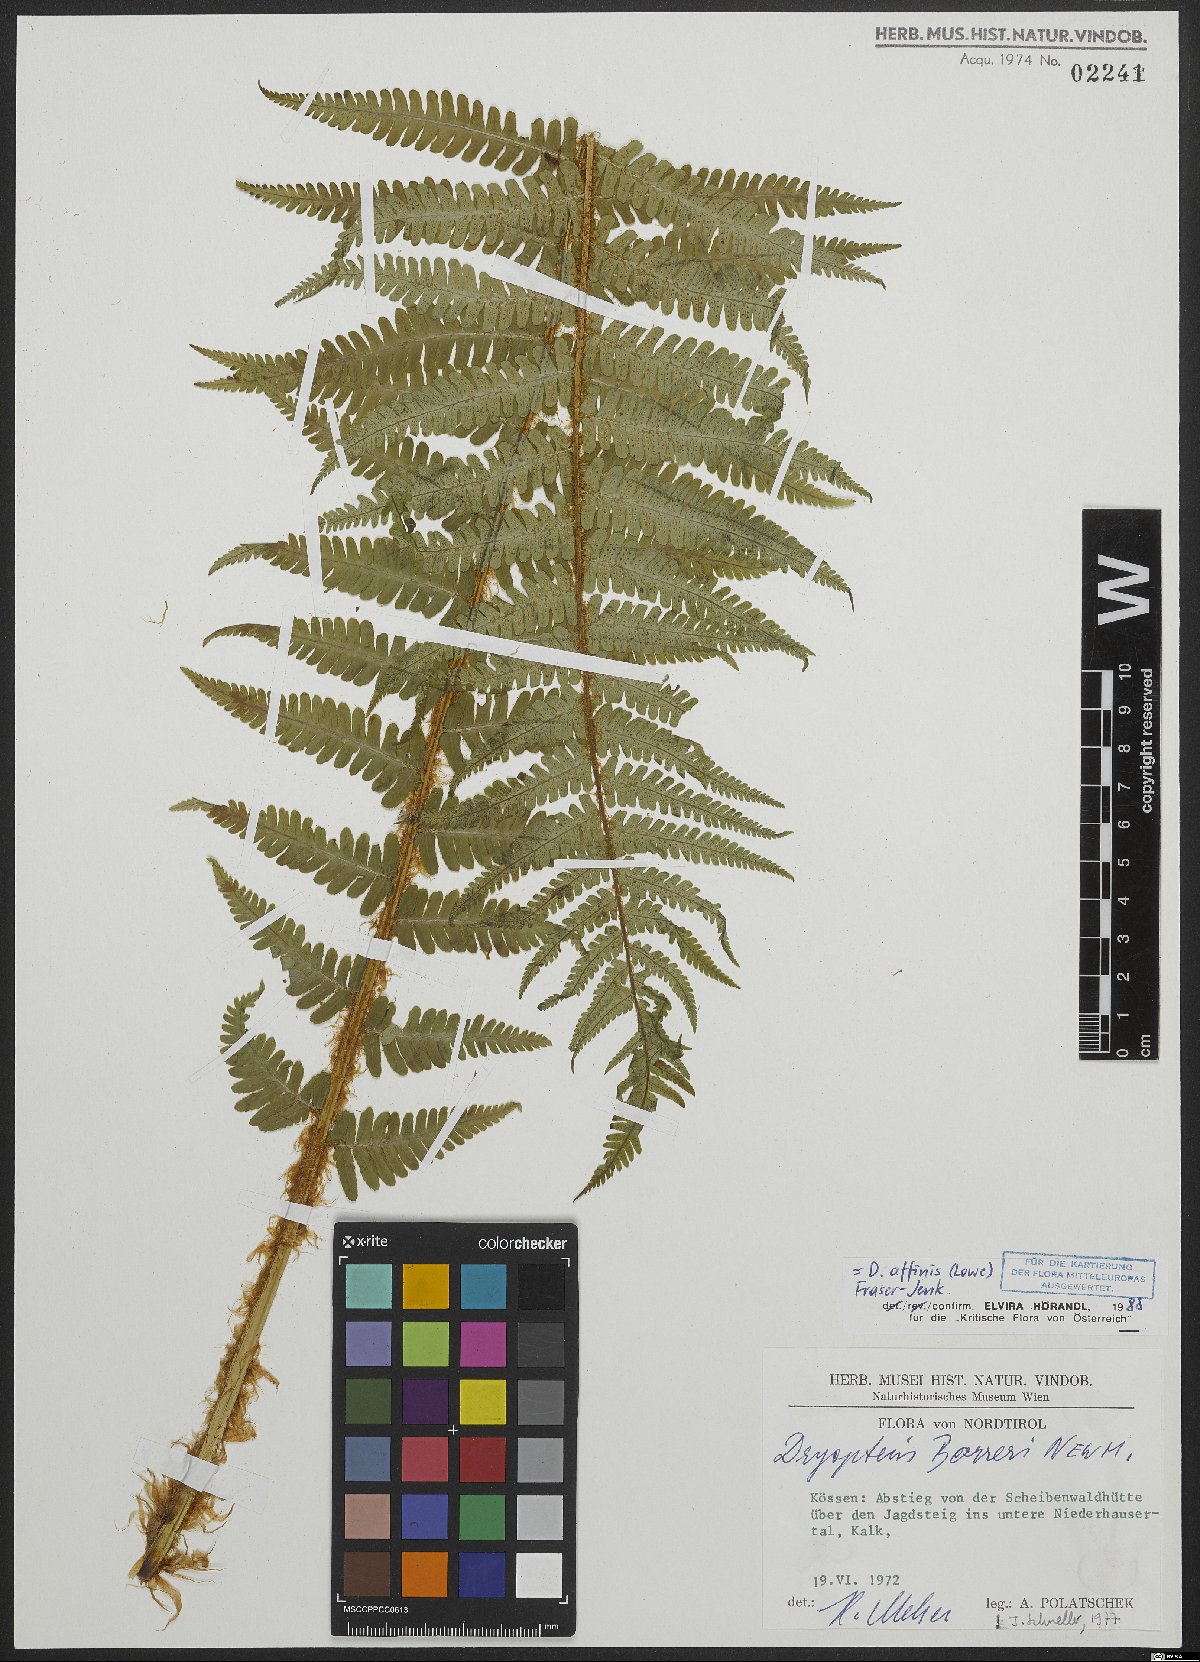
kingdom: Plantae
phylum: Tracheophyta
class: Polypodiopsida
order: Polypodiales
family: Dryopteridaceae
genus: Dryopteris
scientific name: Dryopteris borreri
